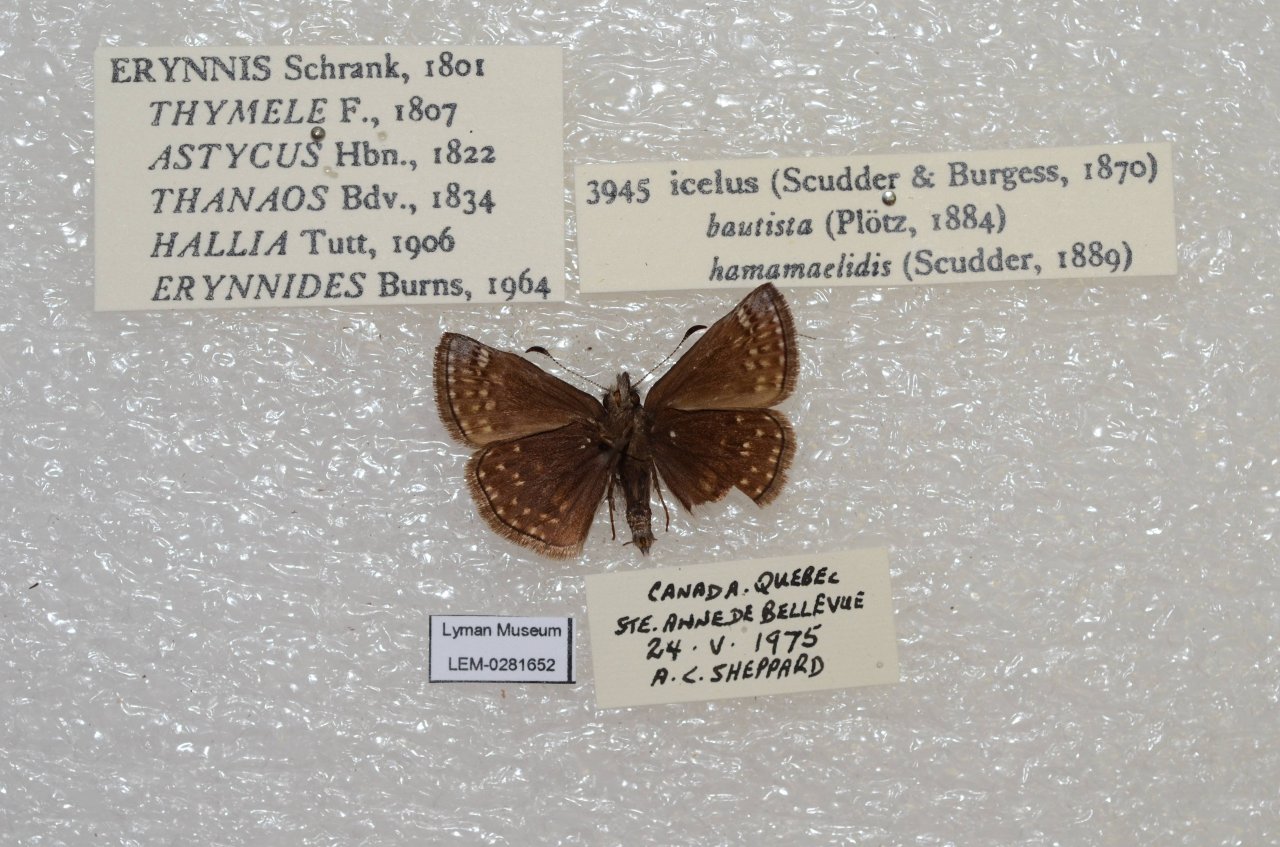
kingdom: Animalia
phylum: Arthropoda
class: Insecta
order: Lepidoptera
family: Hesperiidae
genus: Erynnis
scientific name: Erynnis icelus
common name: Dreamy Duskywing
